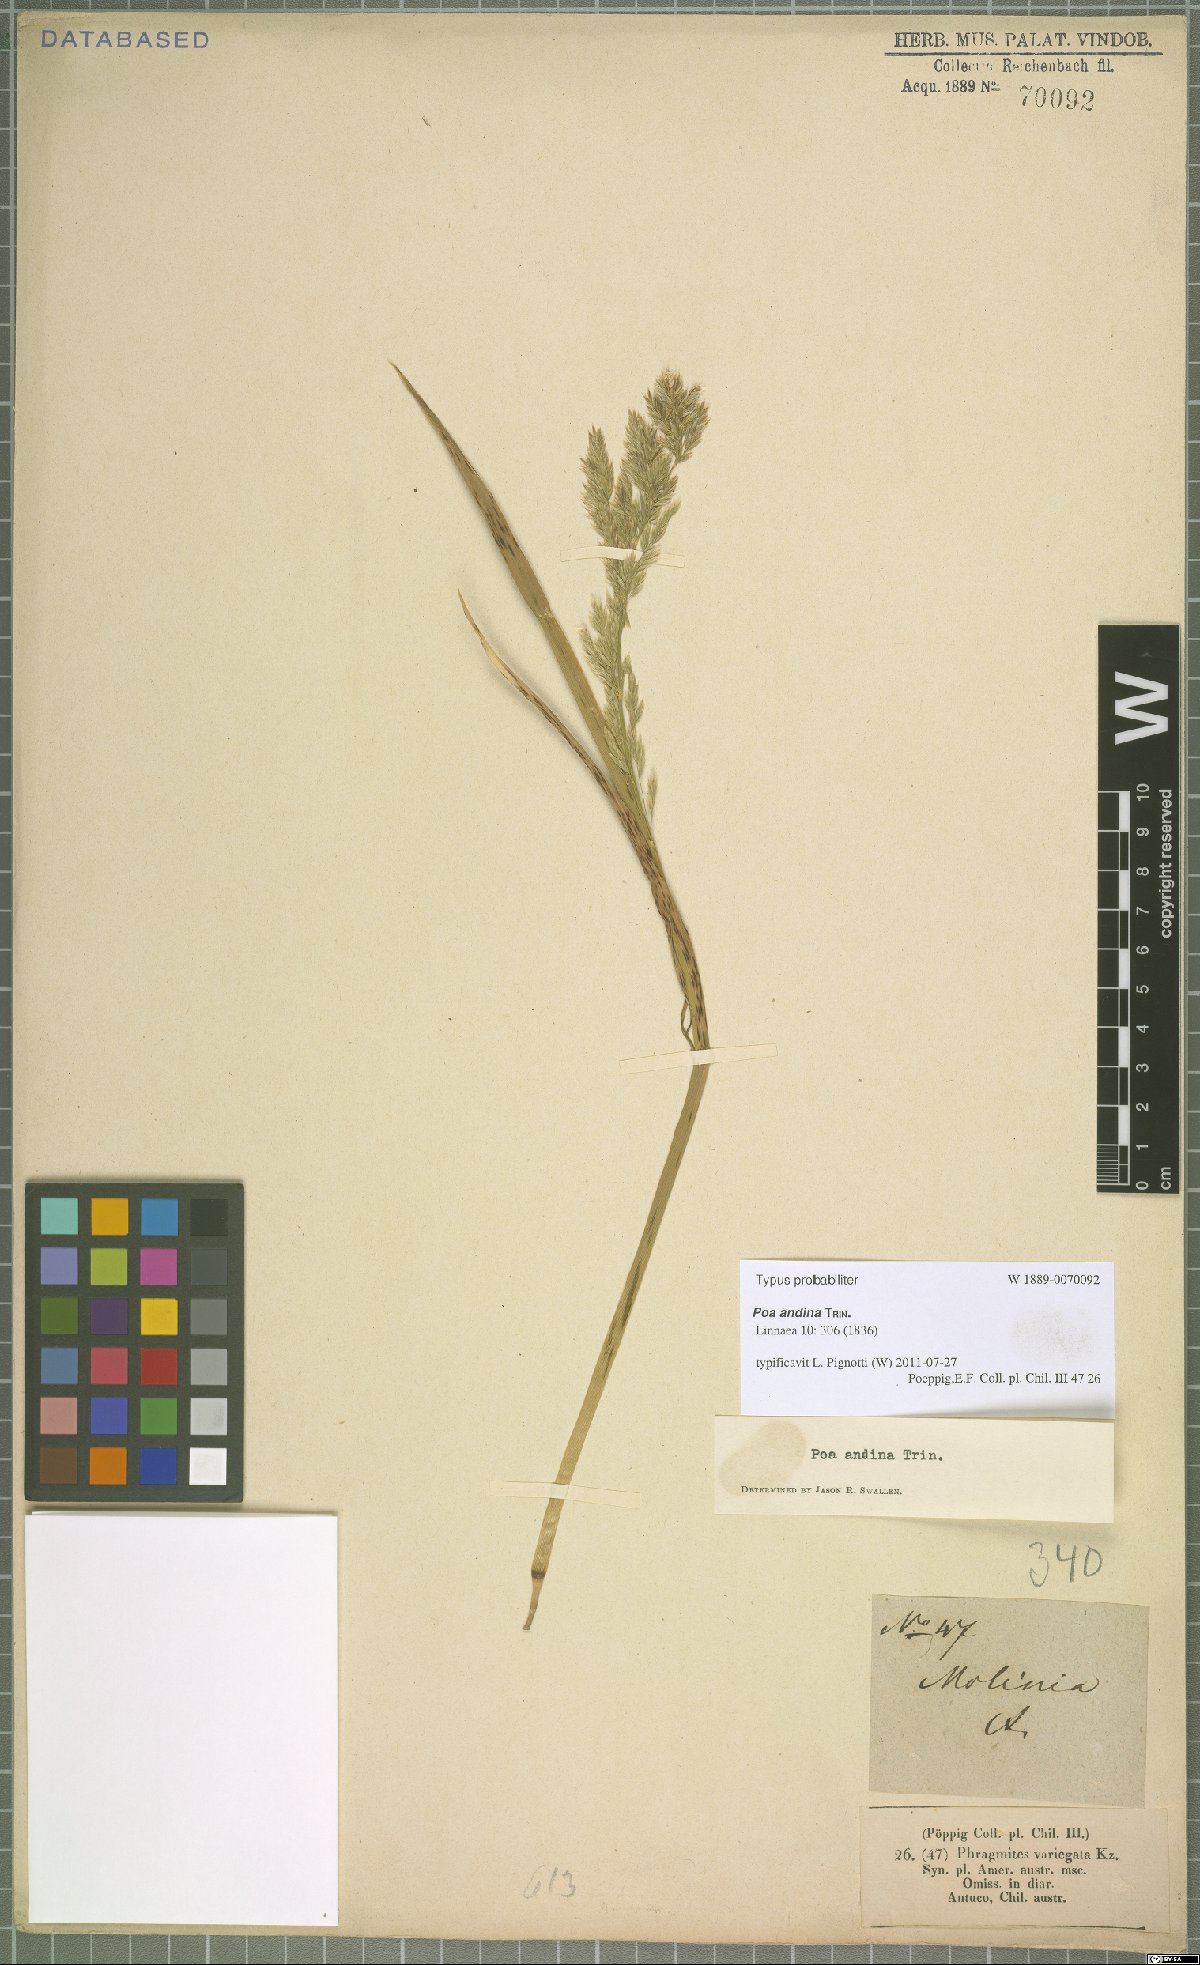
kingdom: Plantae
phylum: Tracheophyta
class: Liliopsida
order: Poales
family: Poaceae
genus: Nicoraepoa
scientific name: Nicoraepoa andina
